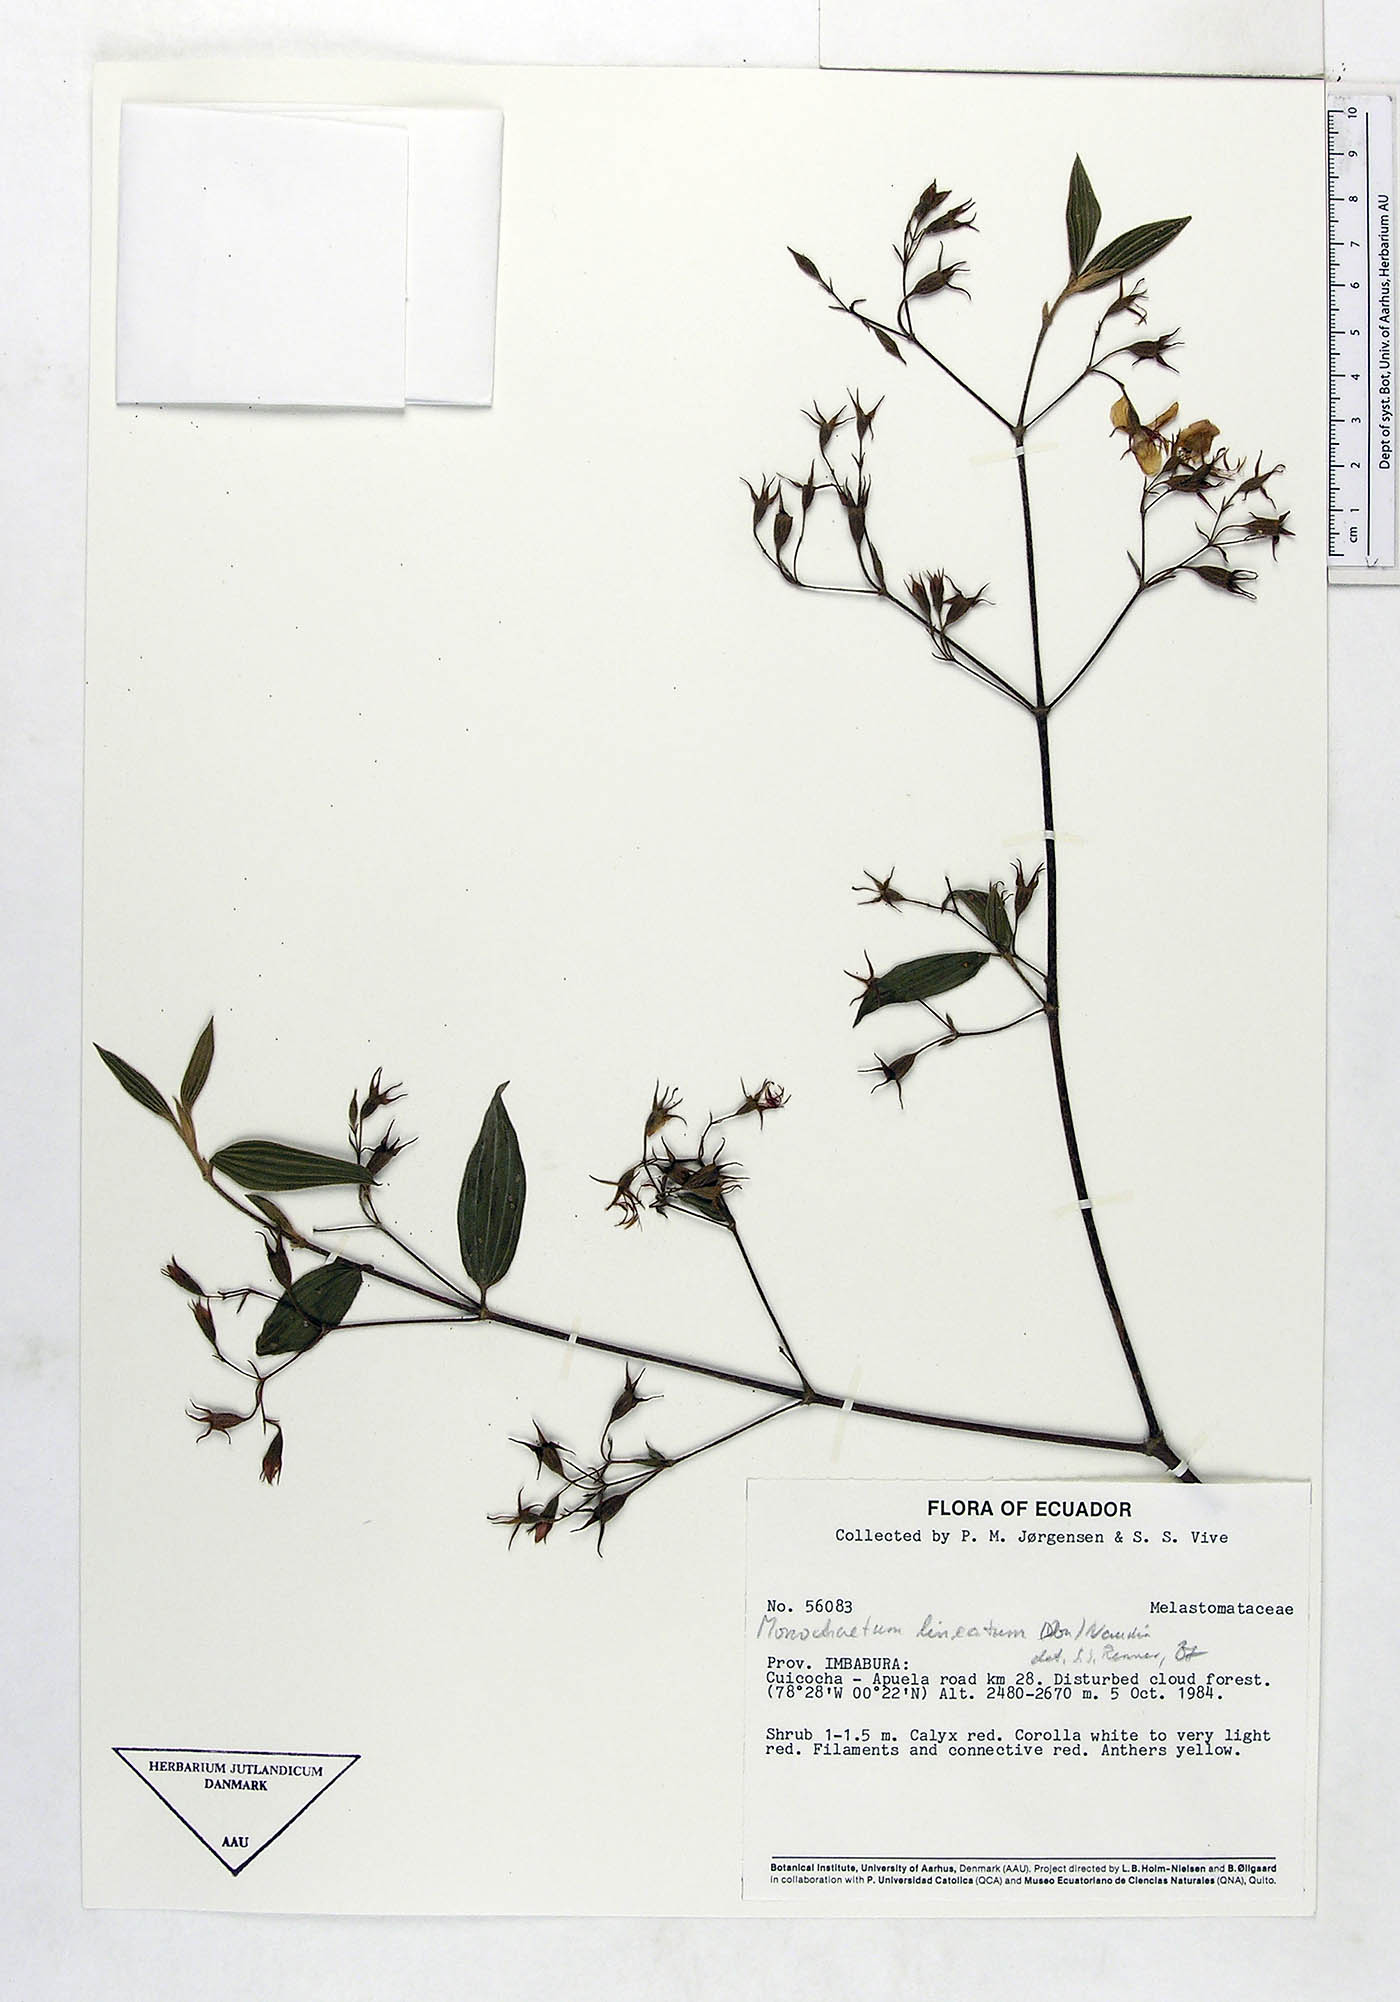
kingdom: Plantae
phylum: Tracheophyta
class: Magnoliopsida
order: Myrtales
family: Melastomataceae
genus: Monochaetum
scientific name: Monochaetum lineatum
